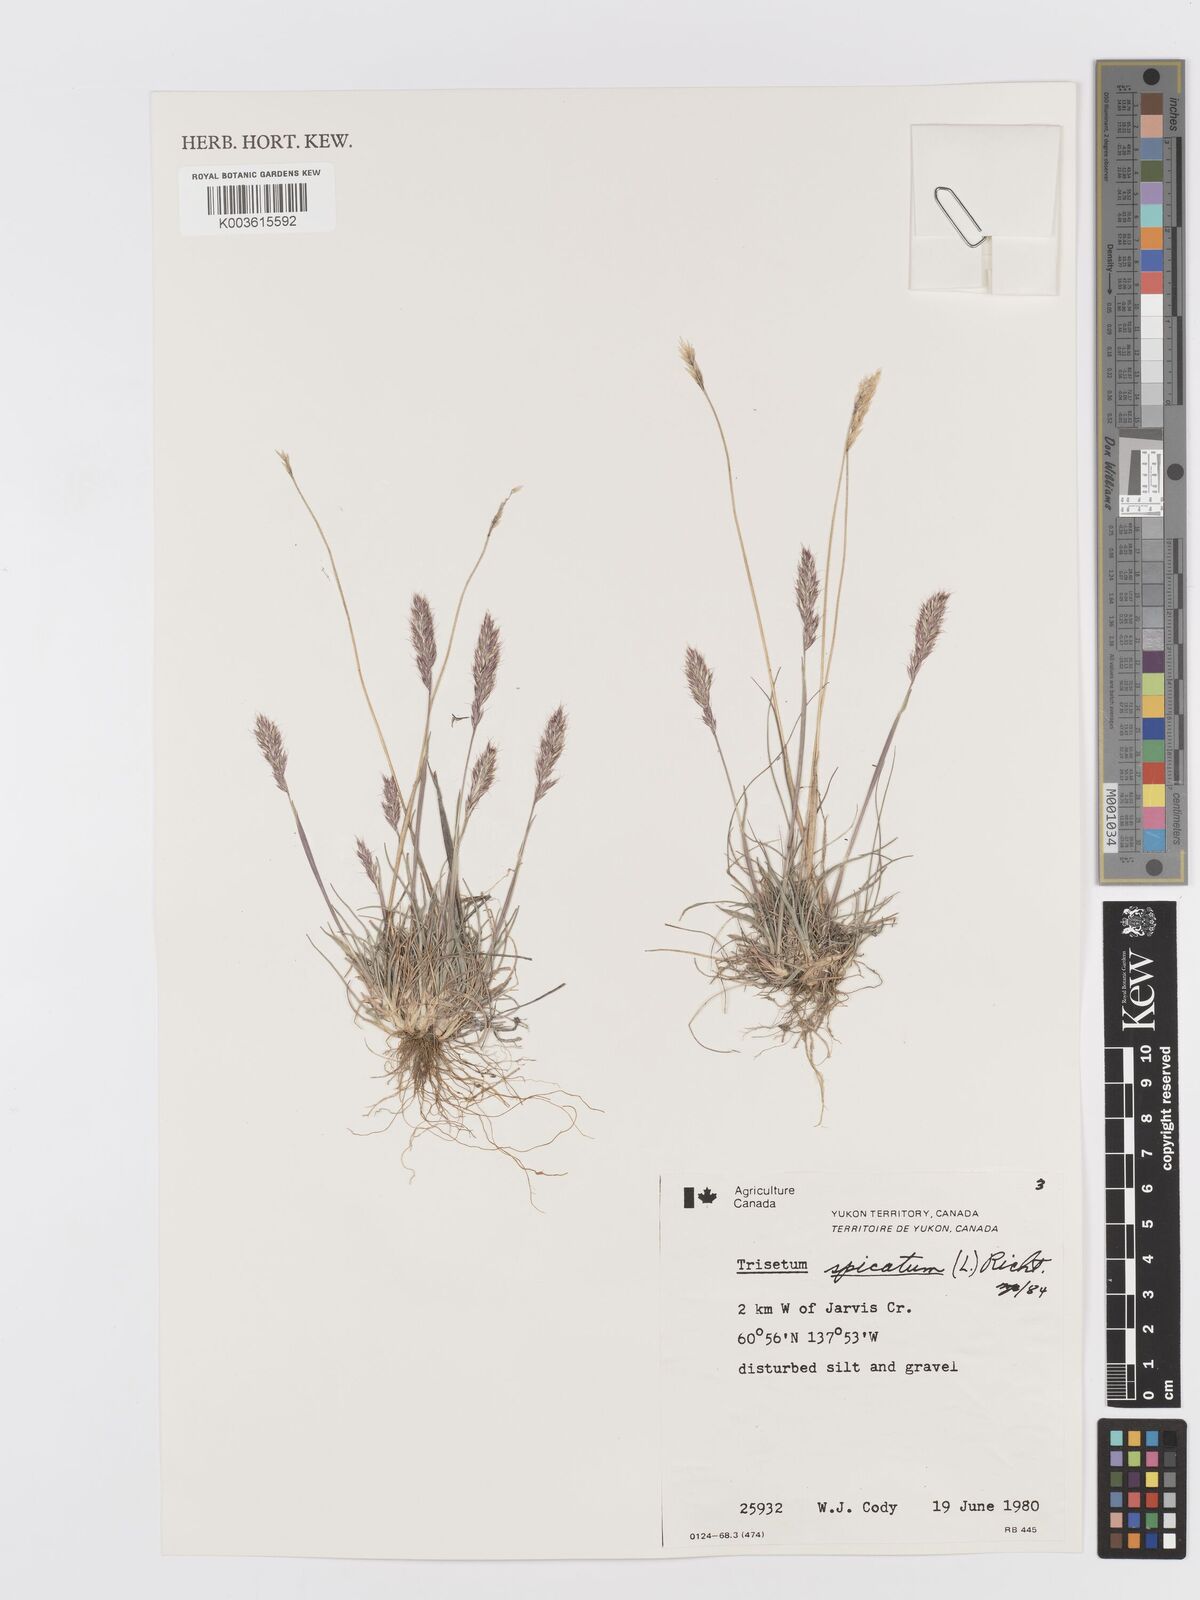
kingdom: Plantae
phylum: Tracheophyta
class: Liliopsida
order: Poales
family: Poaceae
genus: Koeleria
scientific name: Koeleria spicata
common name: Mountain trisetum
